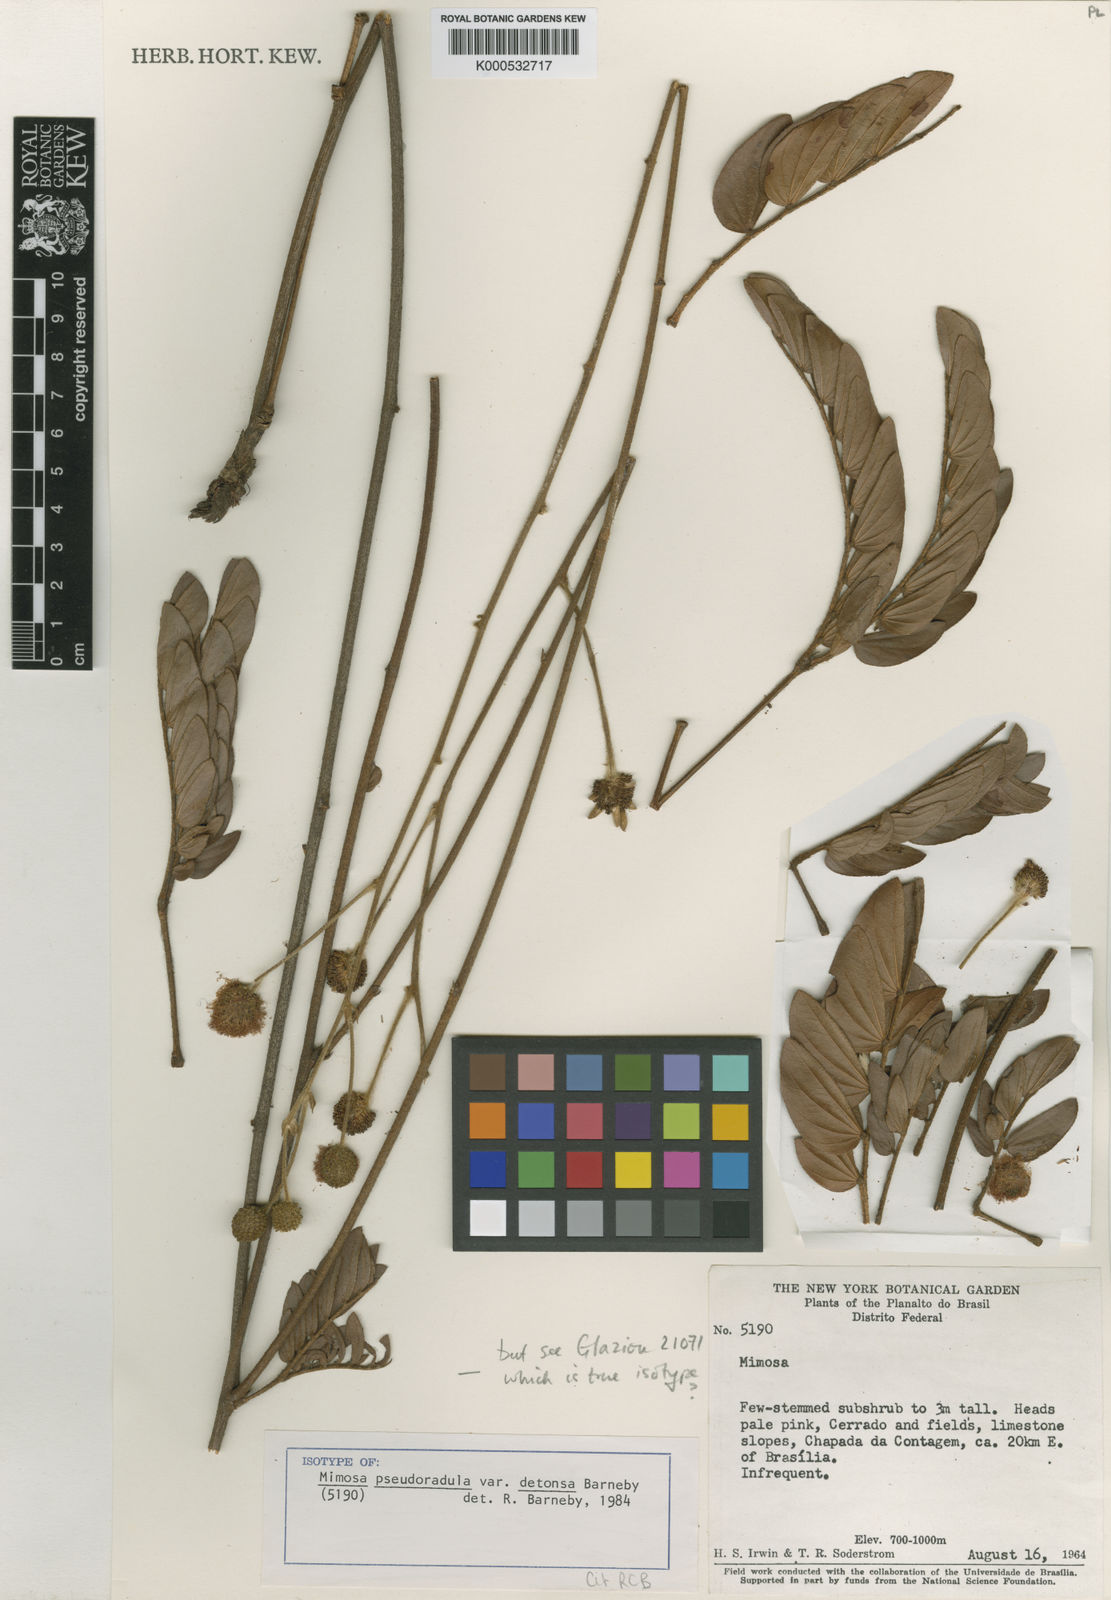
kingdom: Plantae
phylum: Tracheophyta
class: Magnoliopsida
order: Fabales
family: Fabaceae
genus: Mimosa
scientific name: Mimosa detonsa
